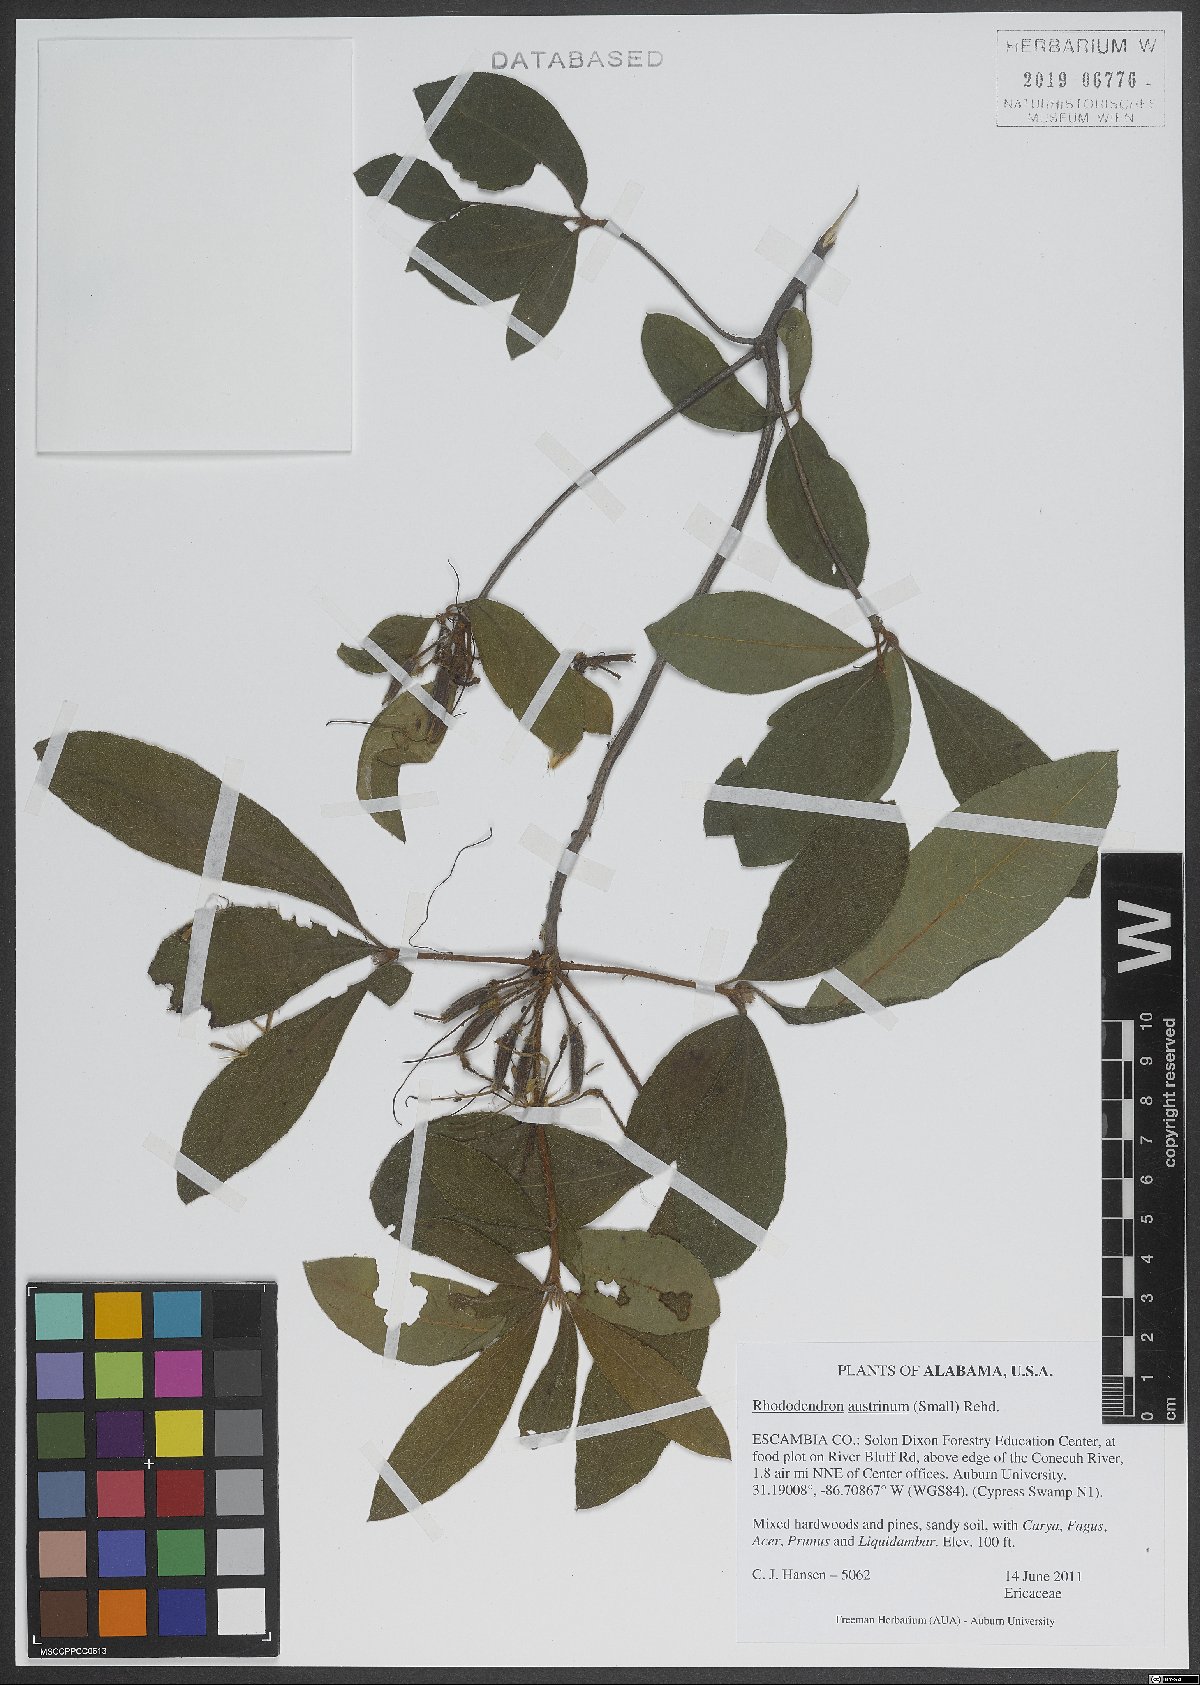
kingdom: Plantae
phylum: Tracheophyta
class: Magnoliopsida
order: Ericales
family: Ericaceae
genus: Rhododendron
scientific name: Rhododendron austrinum
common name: Florida azalea
